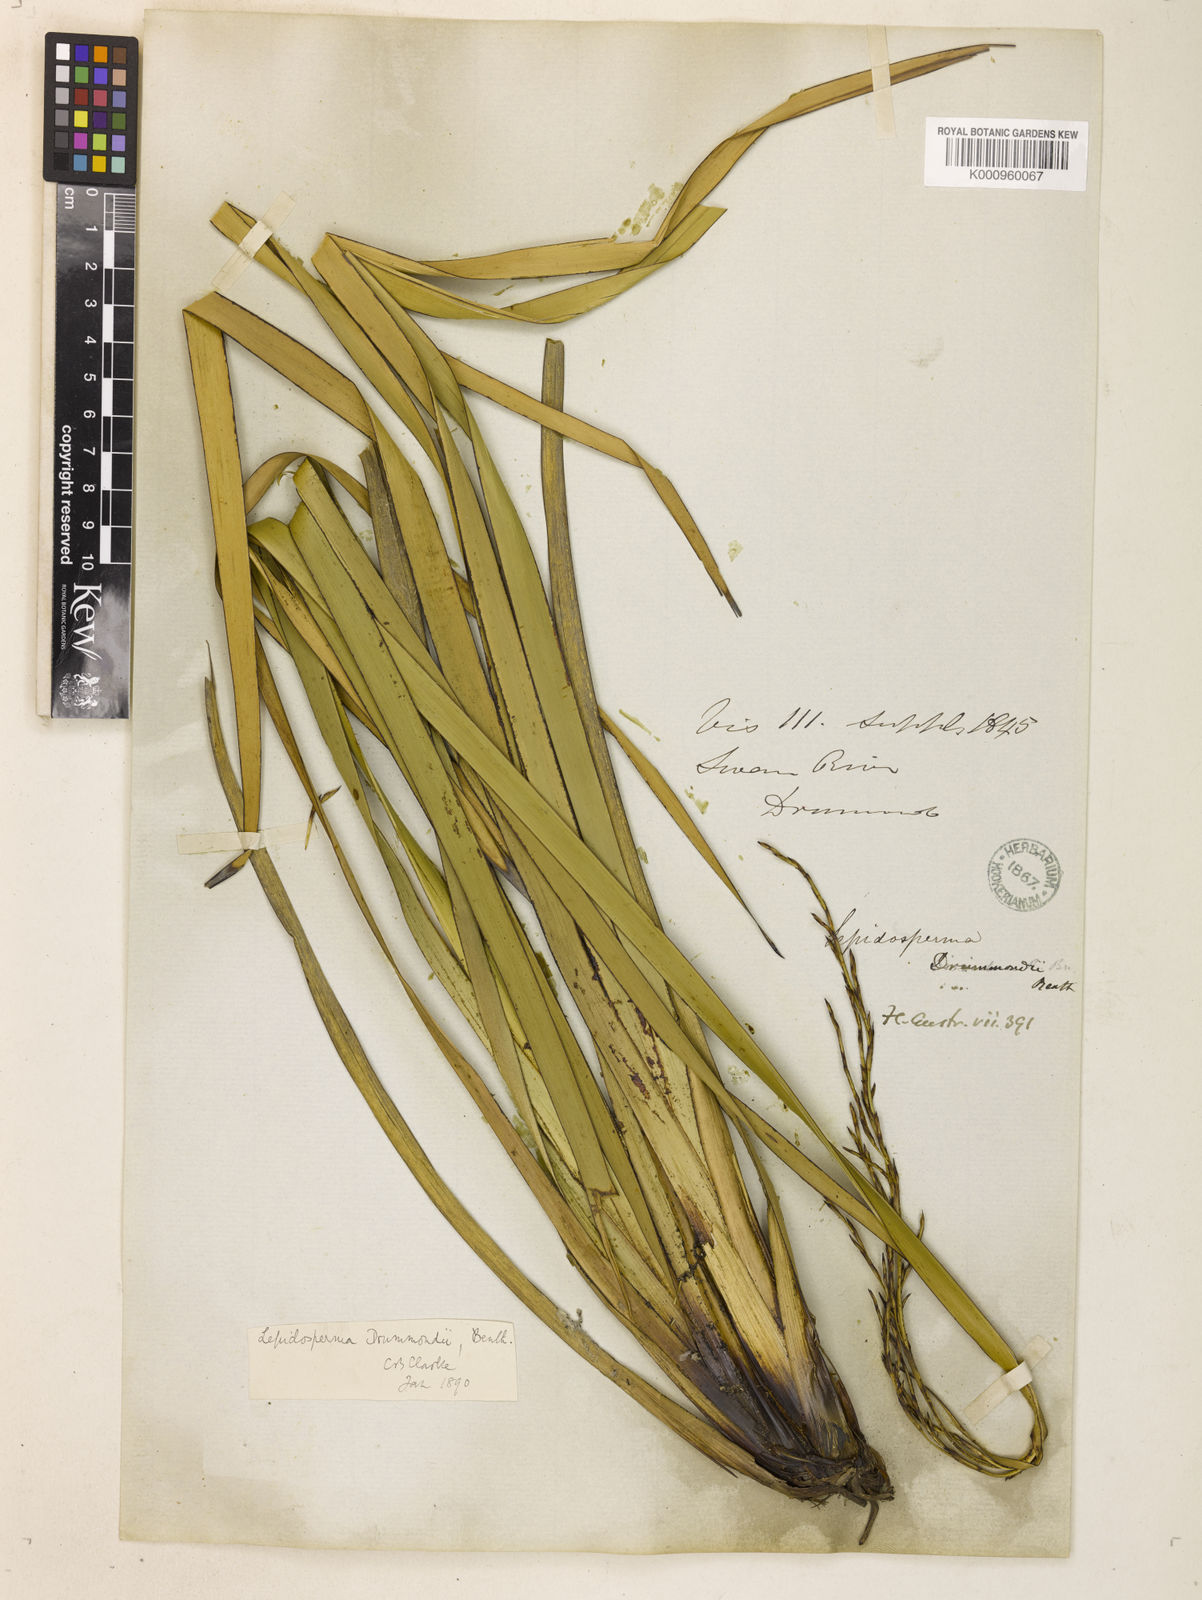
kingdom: Plantae
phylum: Tracheophyta
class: Liliopsida
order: Poales
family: Cyperaceae
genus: Lepidosperma
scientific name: Lepidosperma drummondii
